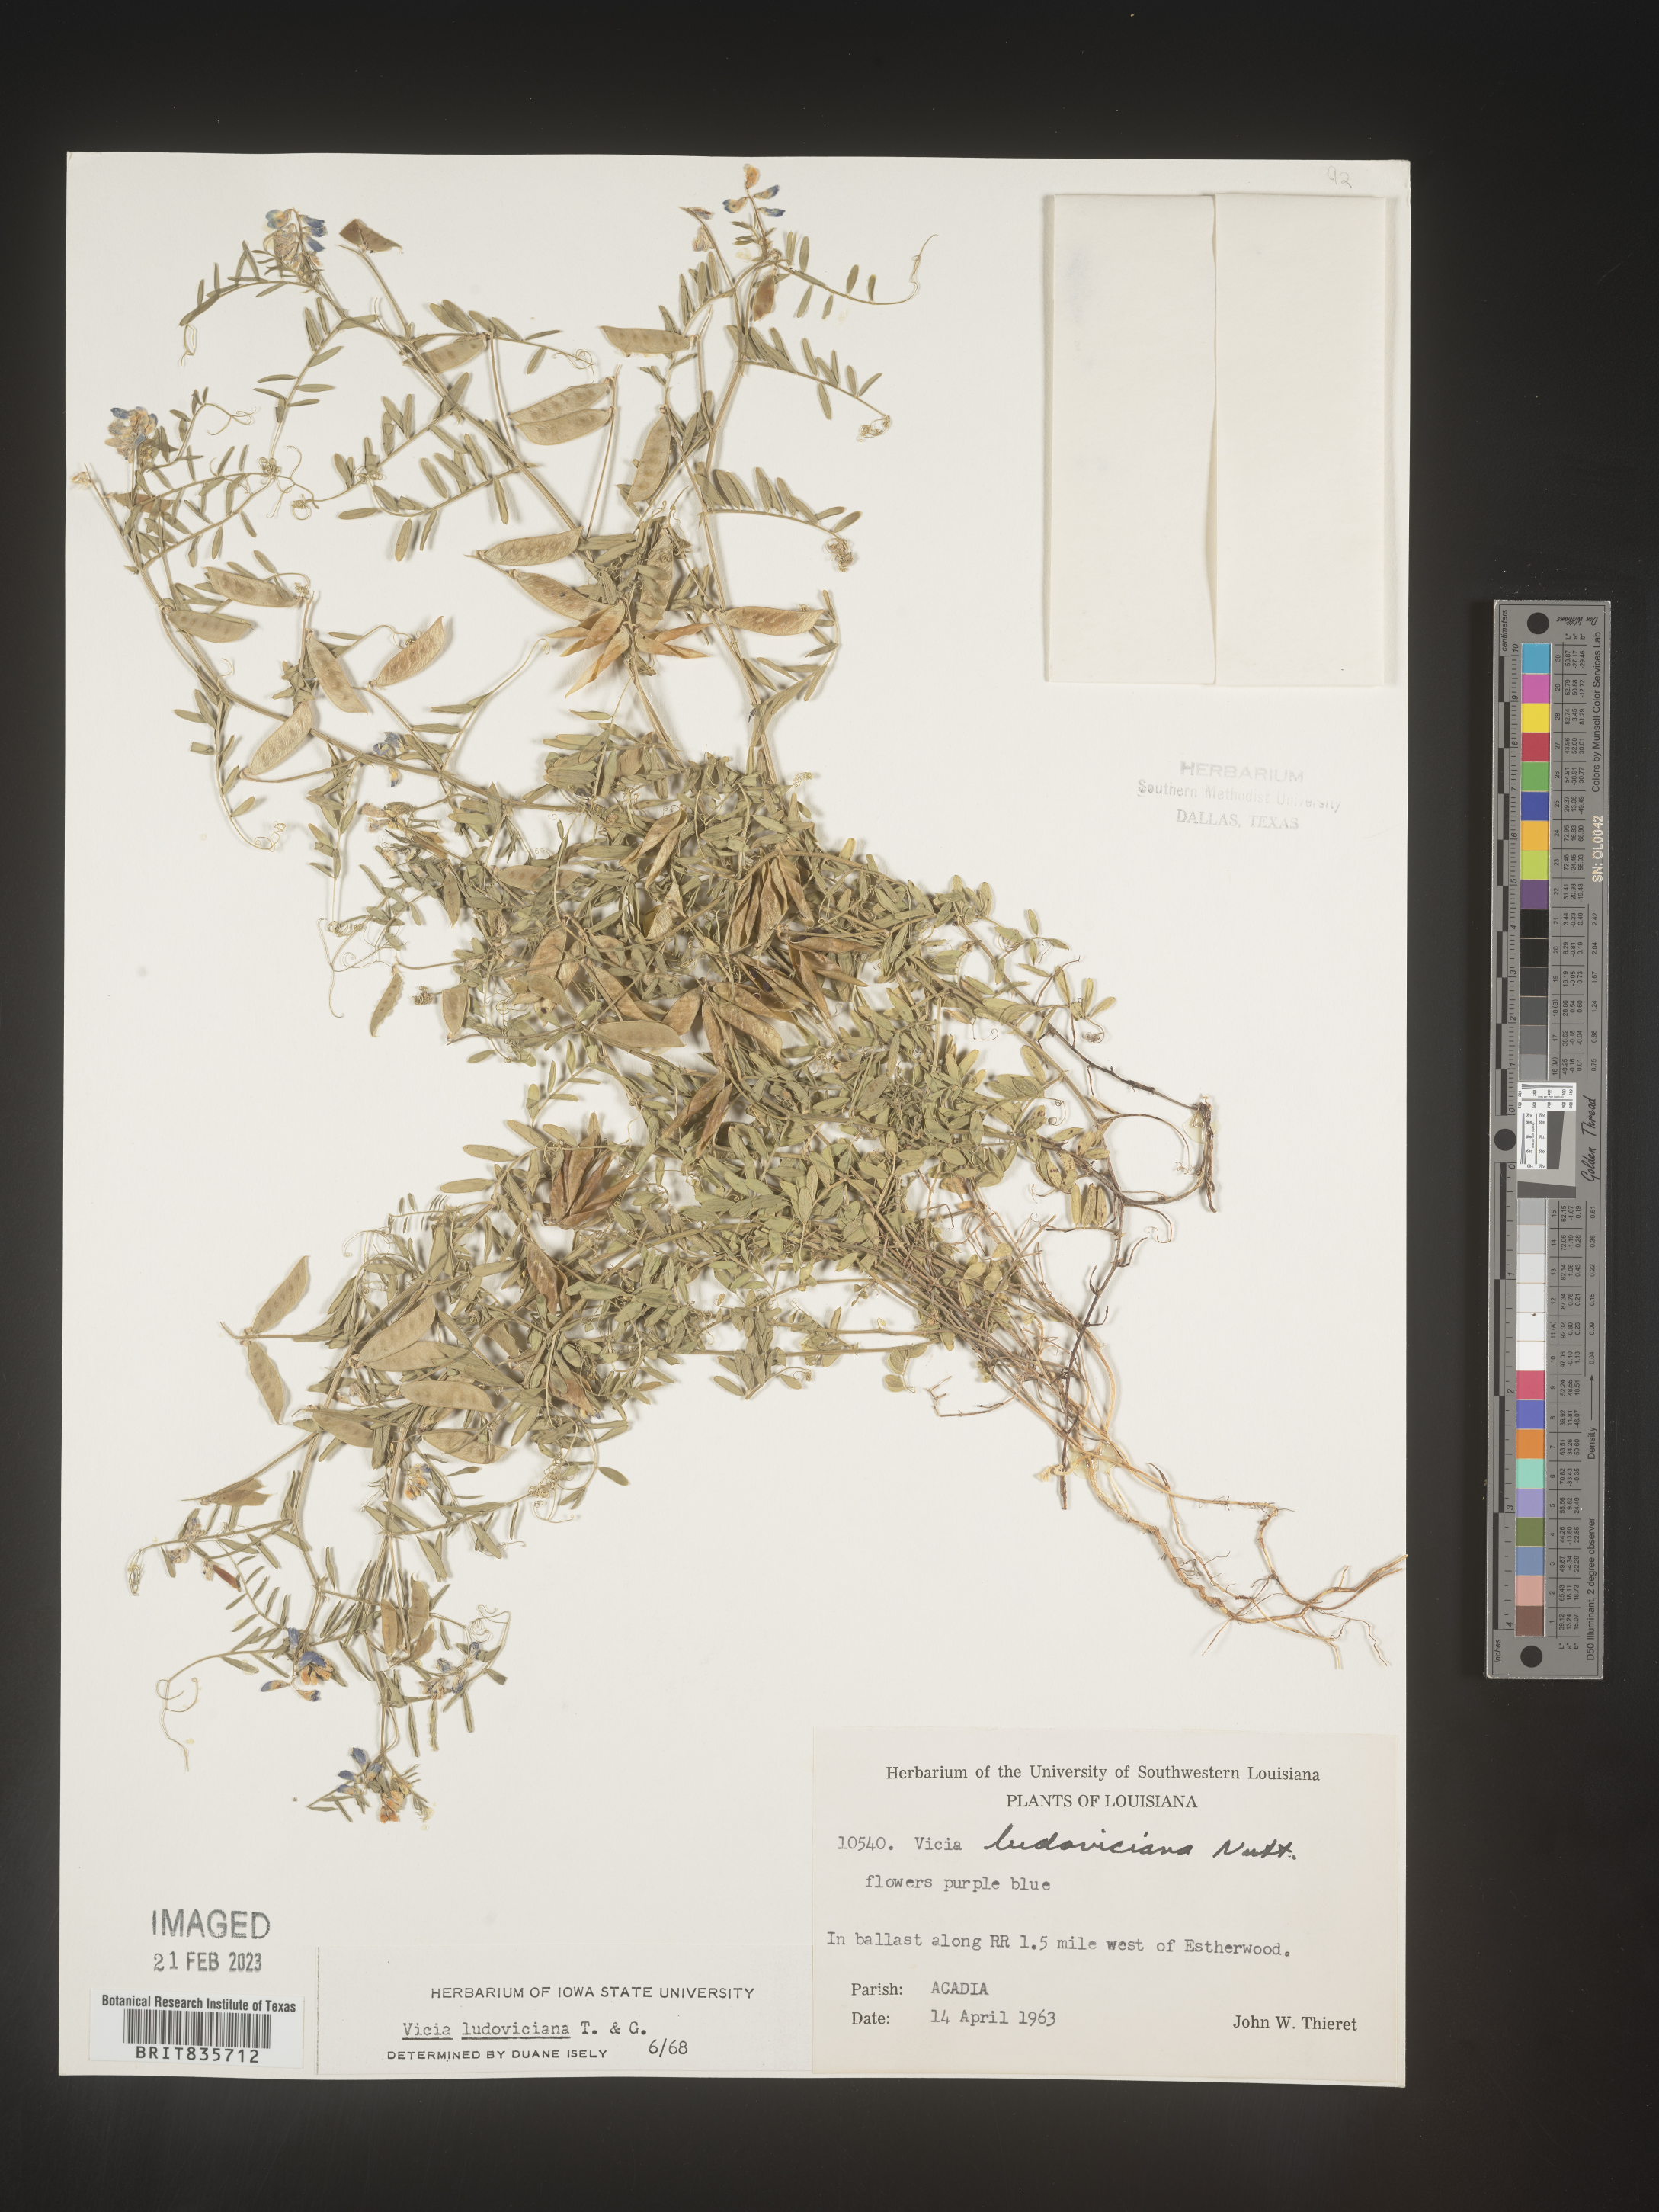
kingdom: Plantae
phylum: Tracheophyta
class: Magnoliopsida
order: Fabales
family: Fabaceae
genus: Vicia
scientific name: Vicia ludoviciana
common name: Louisiana vetch
